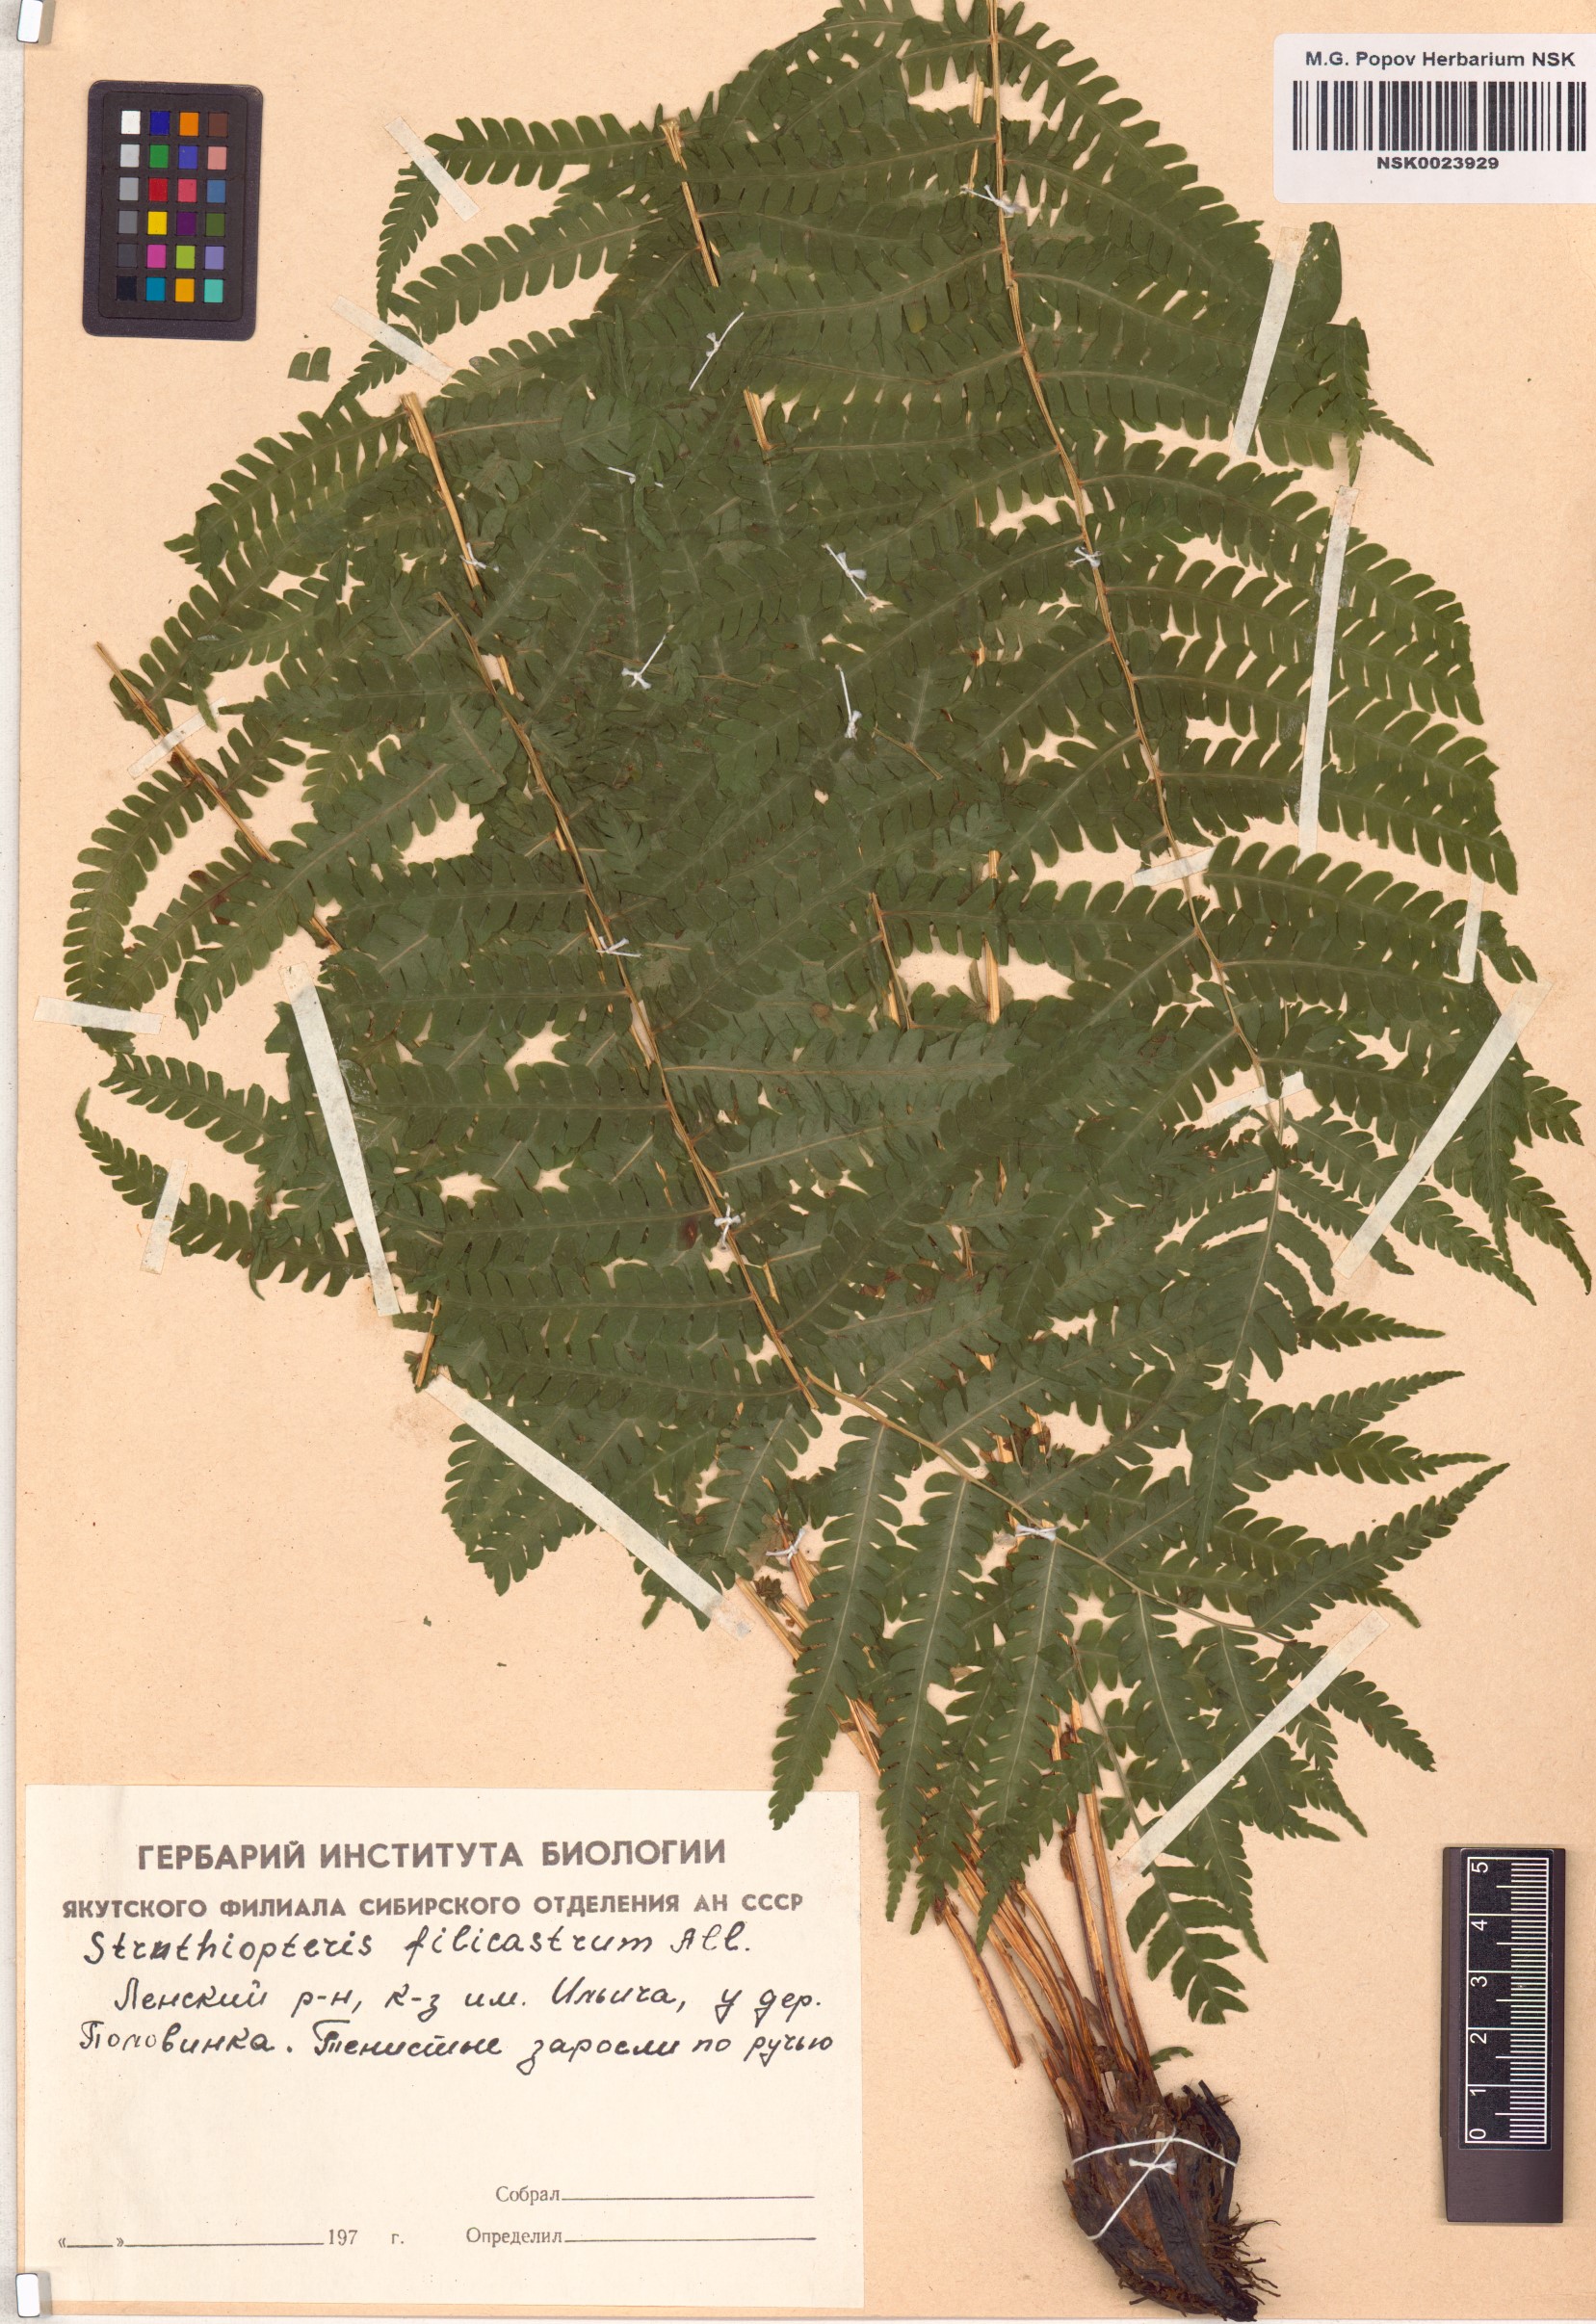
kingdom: Plantae
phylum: Tracheophyta
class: Polypodiopsida
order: Polypodiales
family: Onocleaceae
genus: Matteuccia
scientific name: Matteuccia struthiopteris
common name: Ostrich fern
